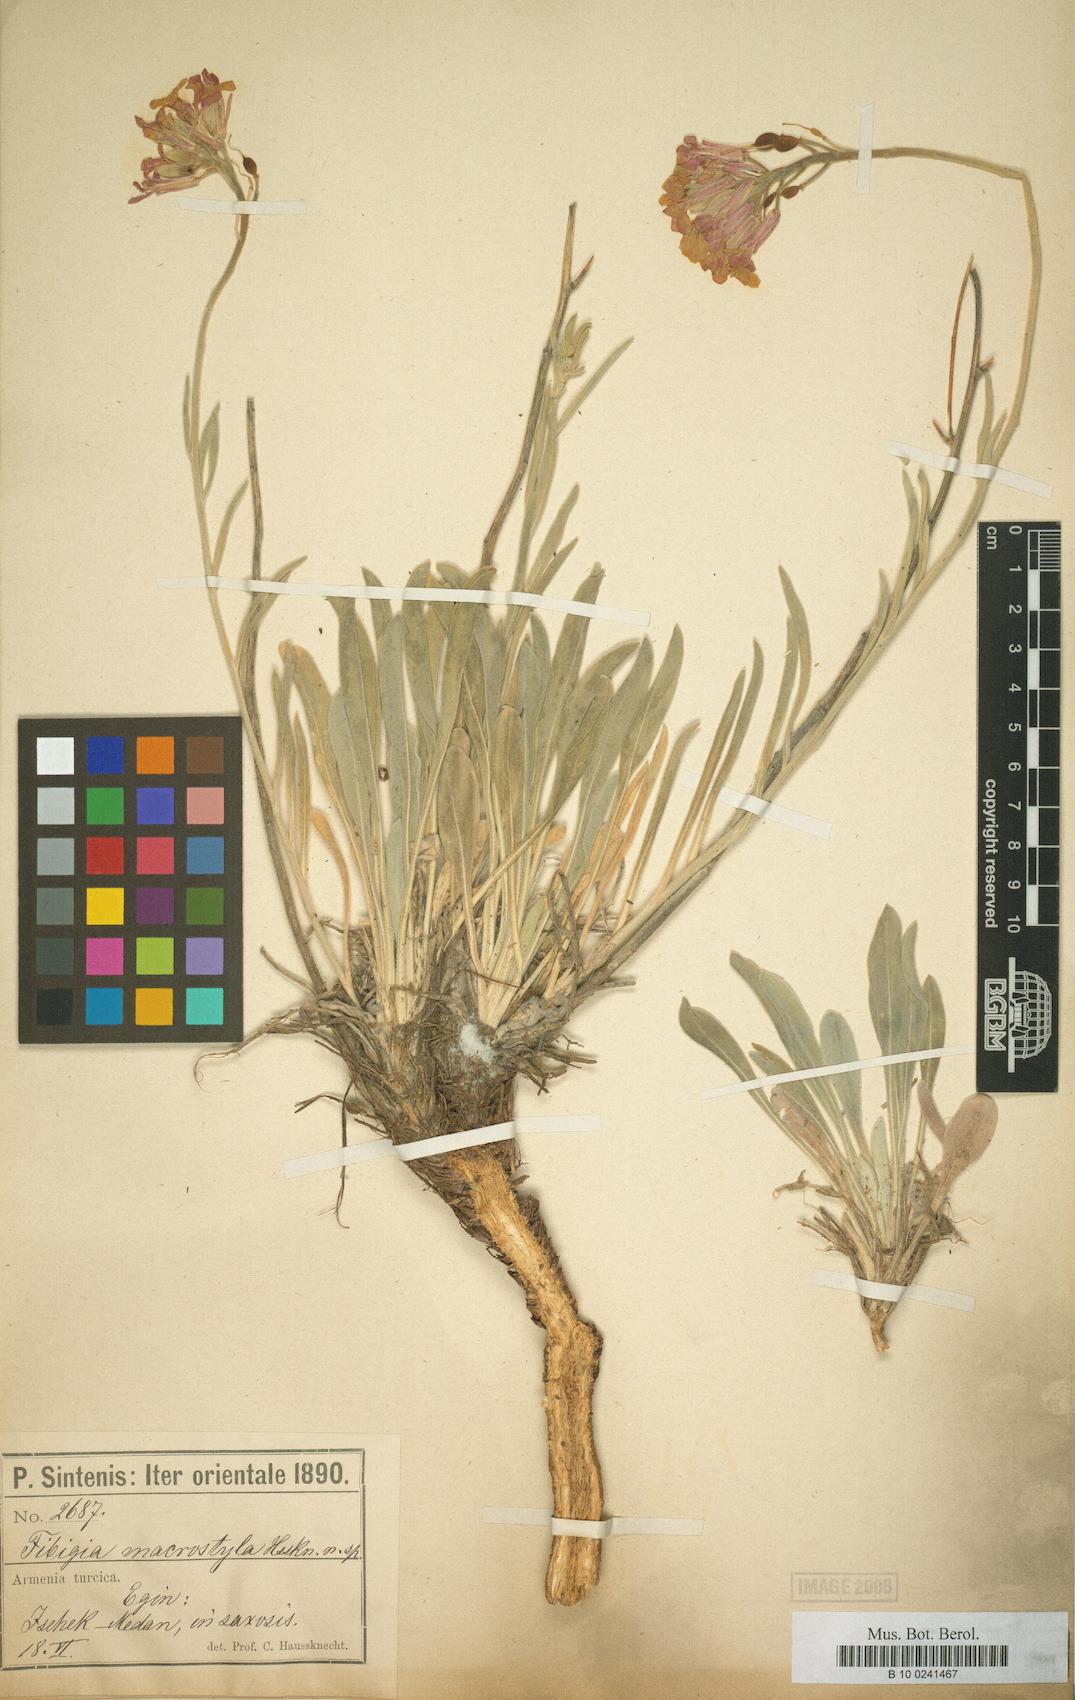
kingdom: Plantae
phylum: Tracheophyta
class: Magnoliopsida
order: Brassicales
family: Brassicaceae
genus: Fibigia
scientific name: Fibigia macrostyla
